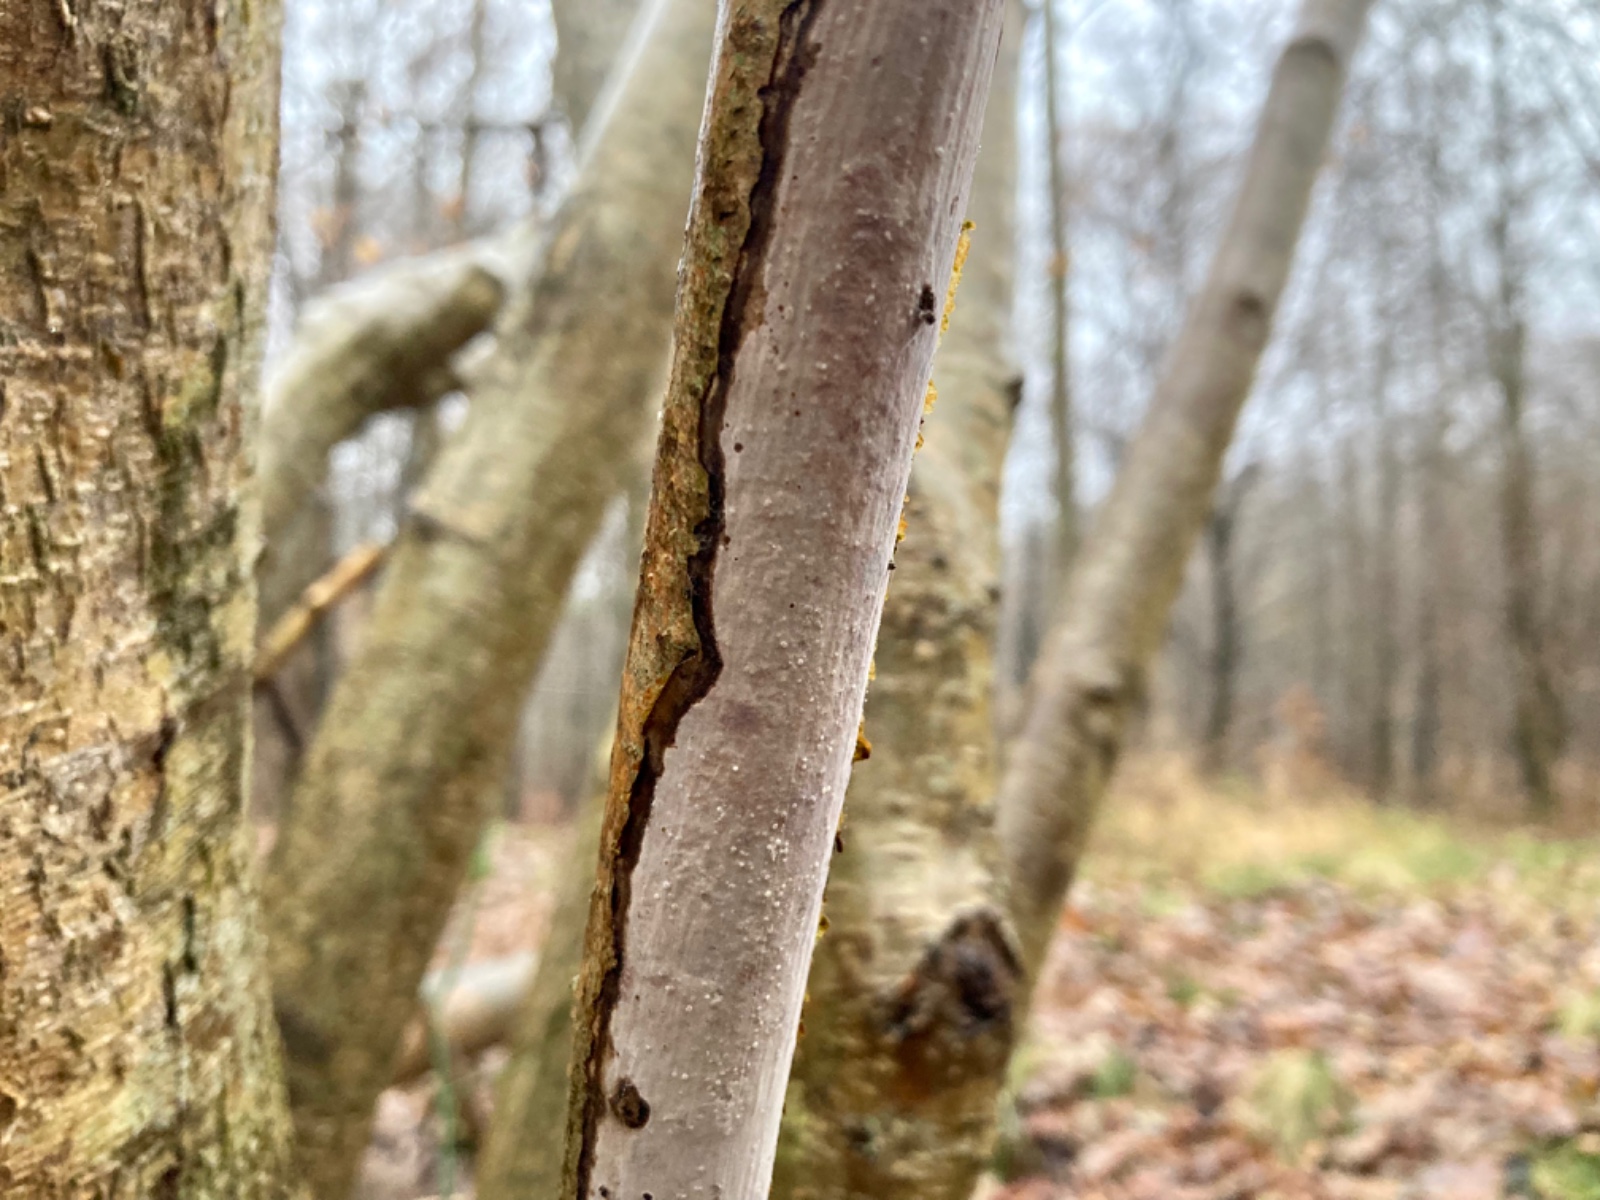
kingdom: Fungi
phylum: Basidiomycota
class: Agaricomycetes
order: Corticiales
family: Vuilleminiaceae
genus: Vuilleminia
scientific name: Vuilleminia coryli
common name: hassel-barksprænger
